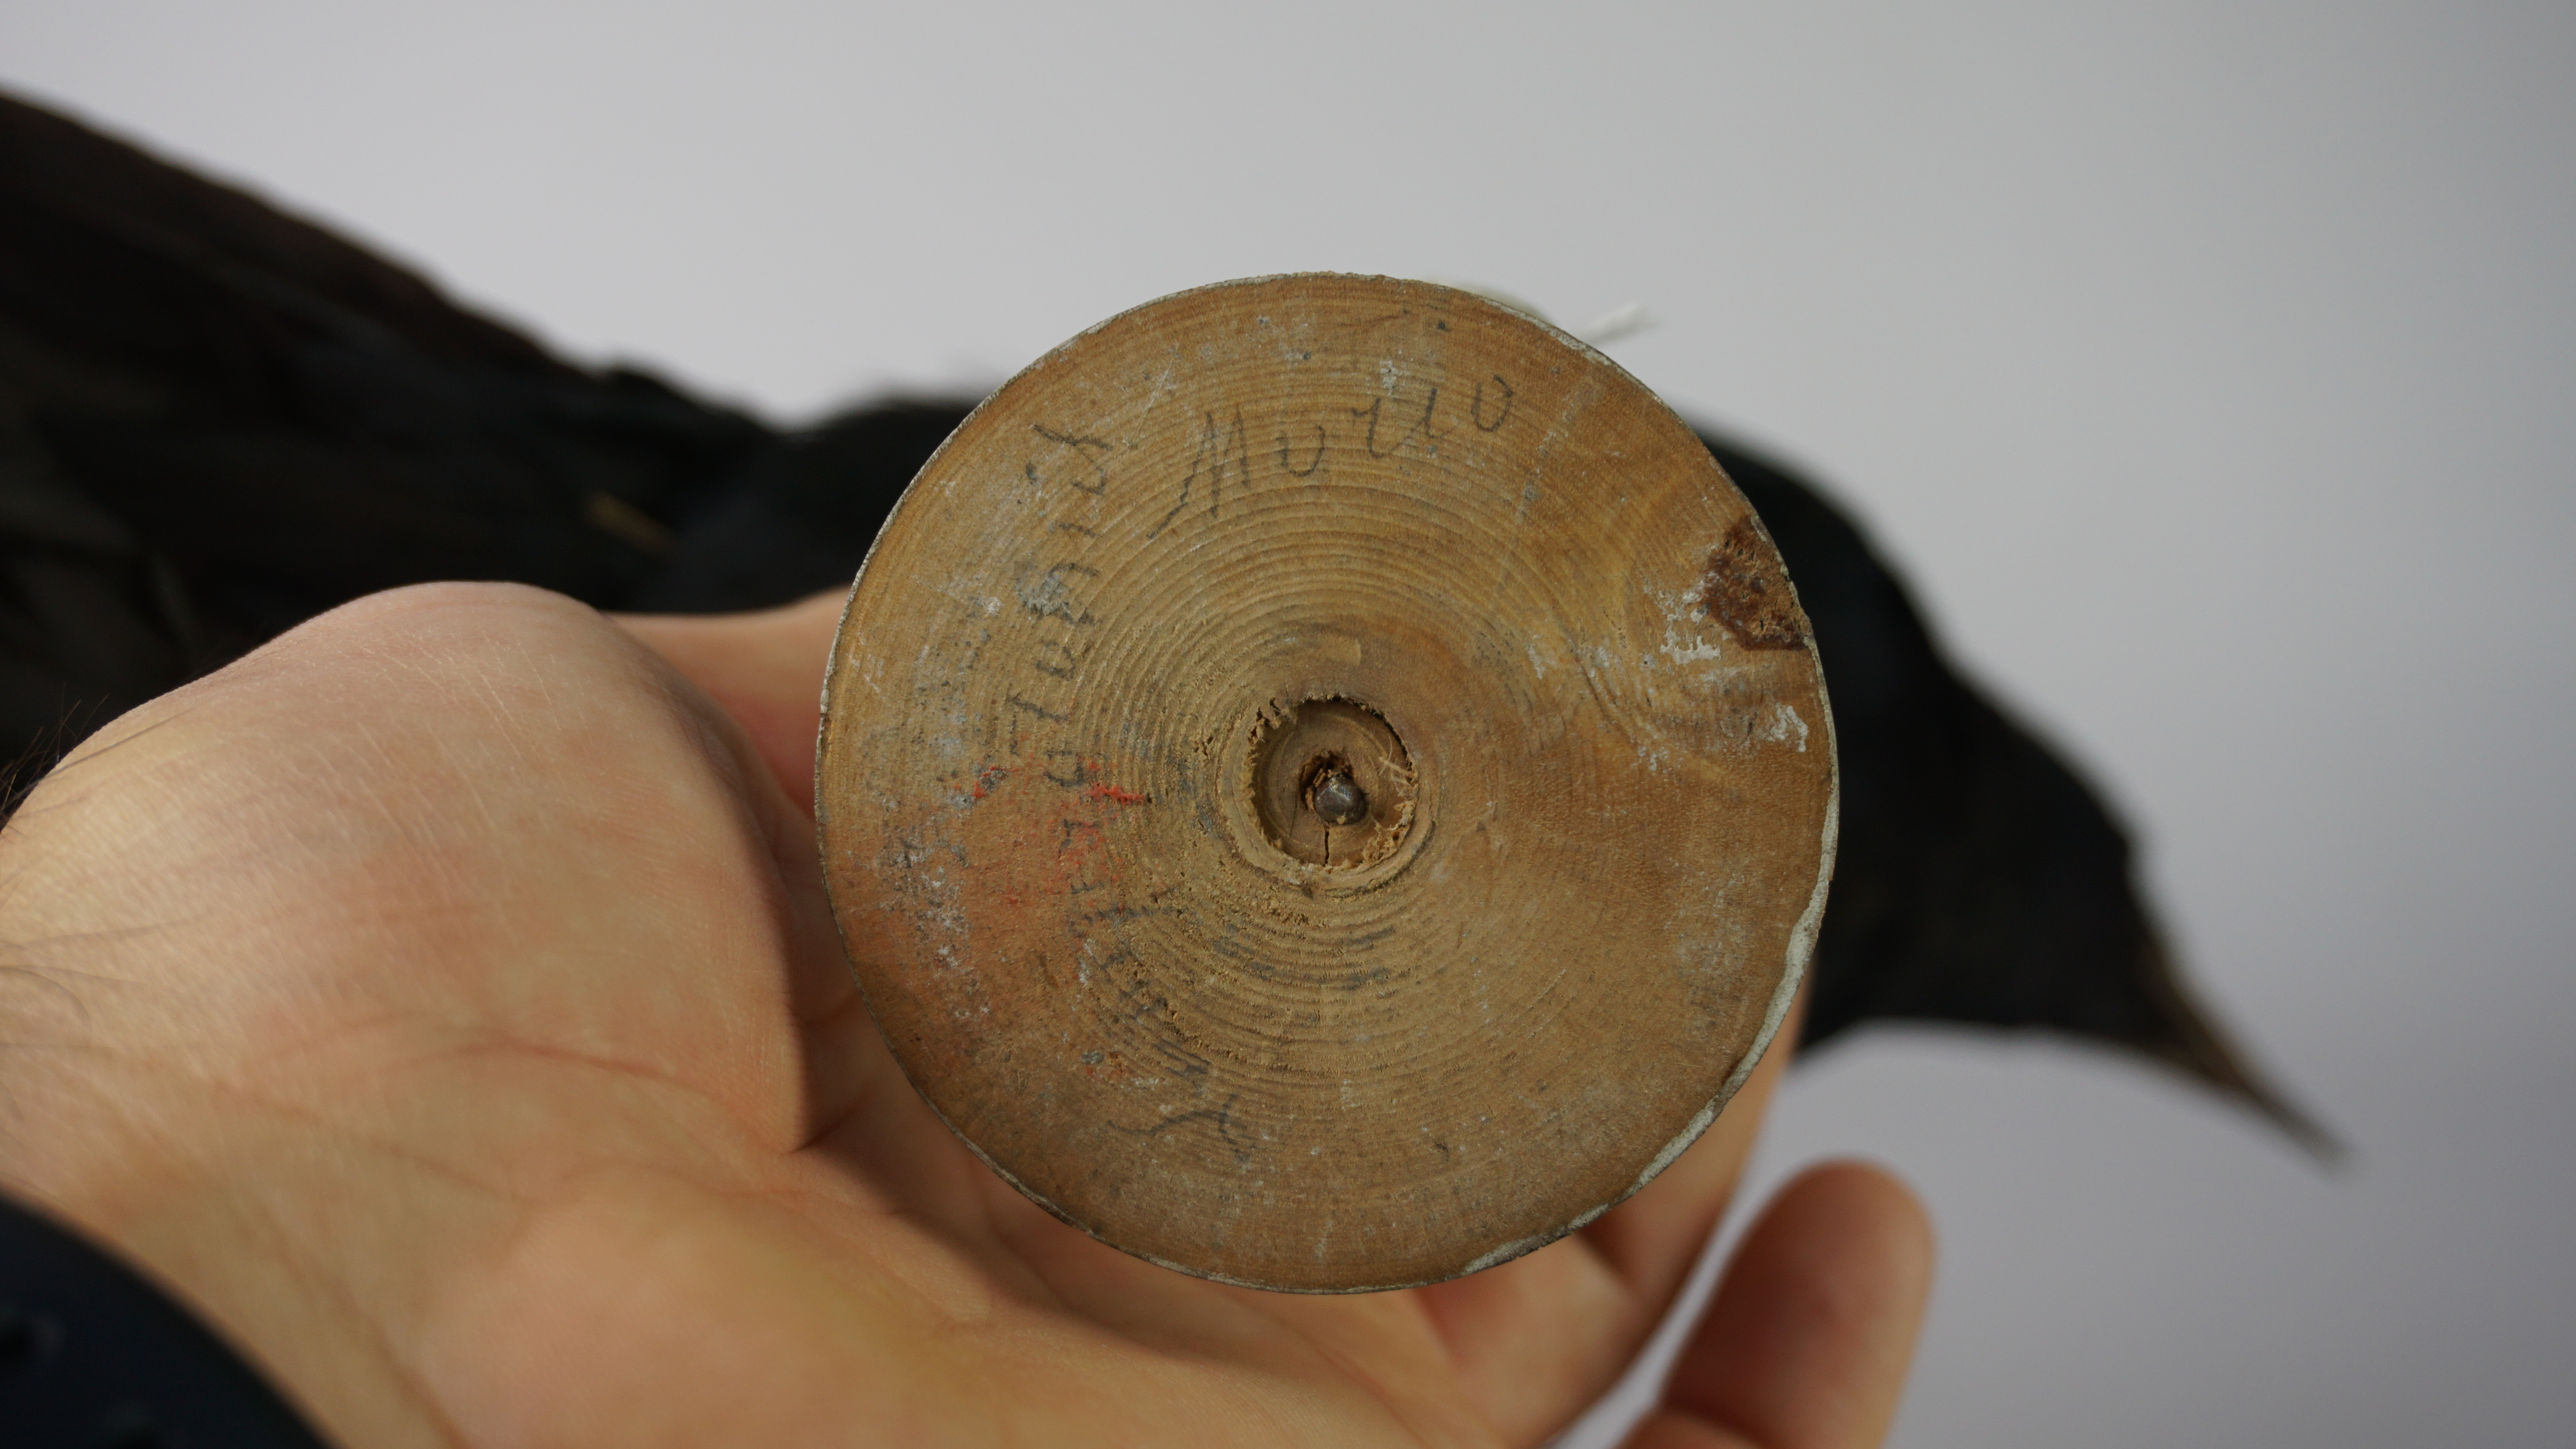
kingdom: Animalia
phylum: Chordata
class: Aves
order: Passeriformes
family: Sturnidae
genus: Onychognathus
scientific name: Onychognathus morio
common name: Red-winged starling
